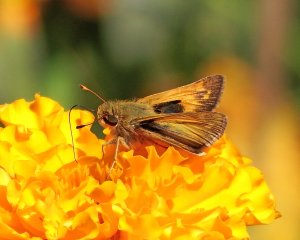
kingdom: Animalia
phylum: Arthropoda
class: Insecta
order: Lepidoptera
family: Hesperiidae
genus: Atalopedes
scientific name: Atalopedes campestris
